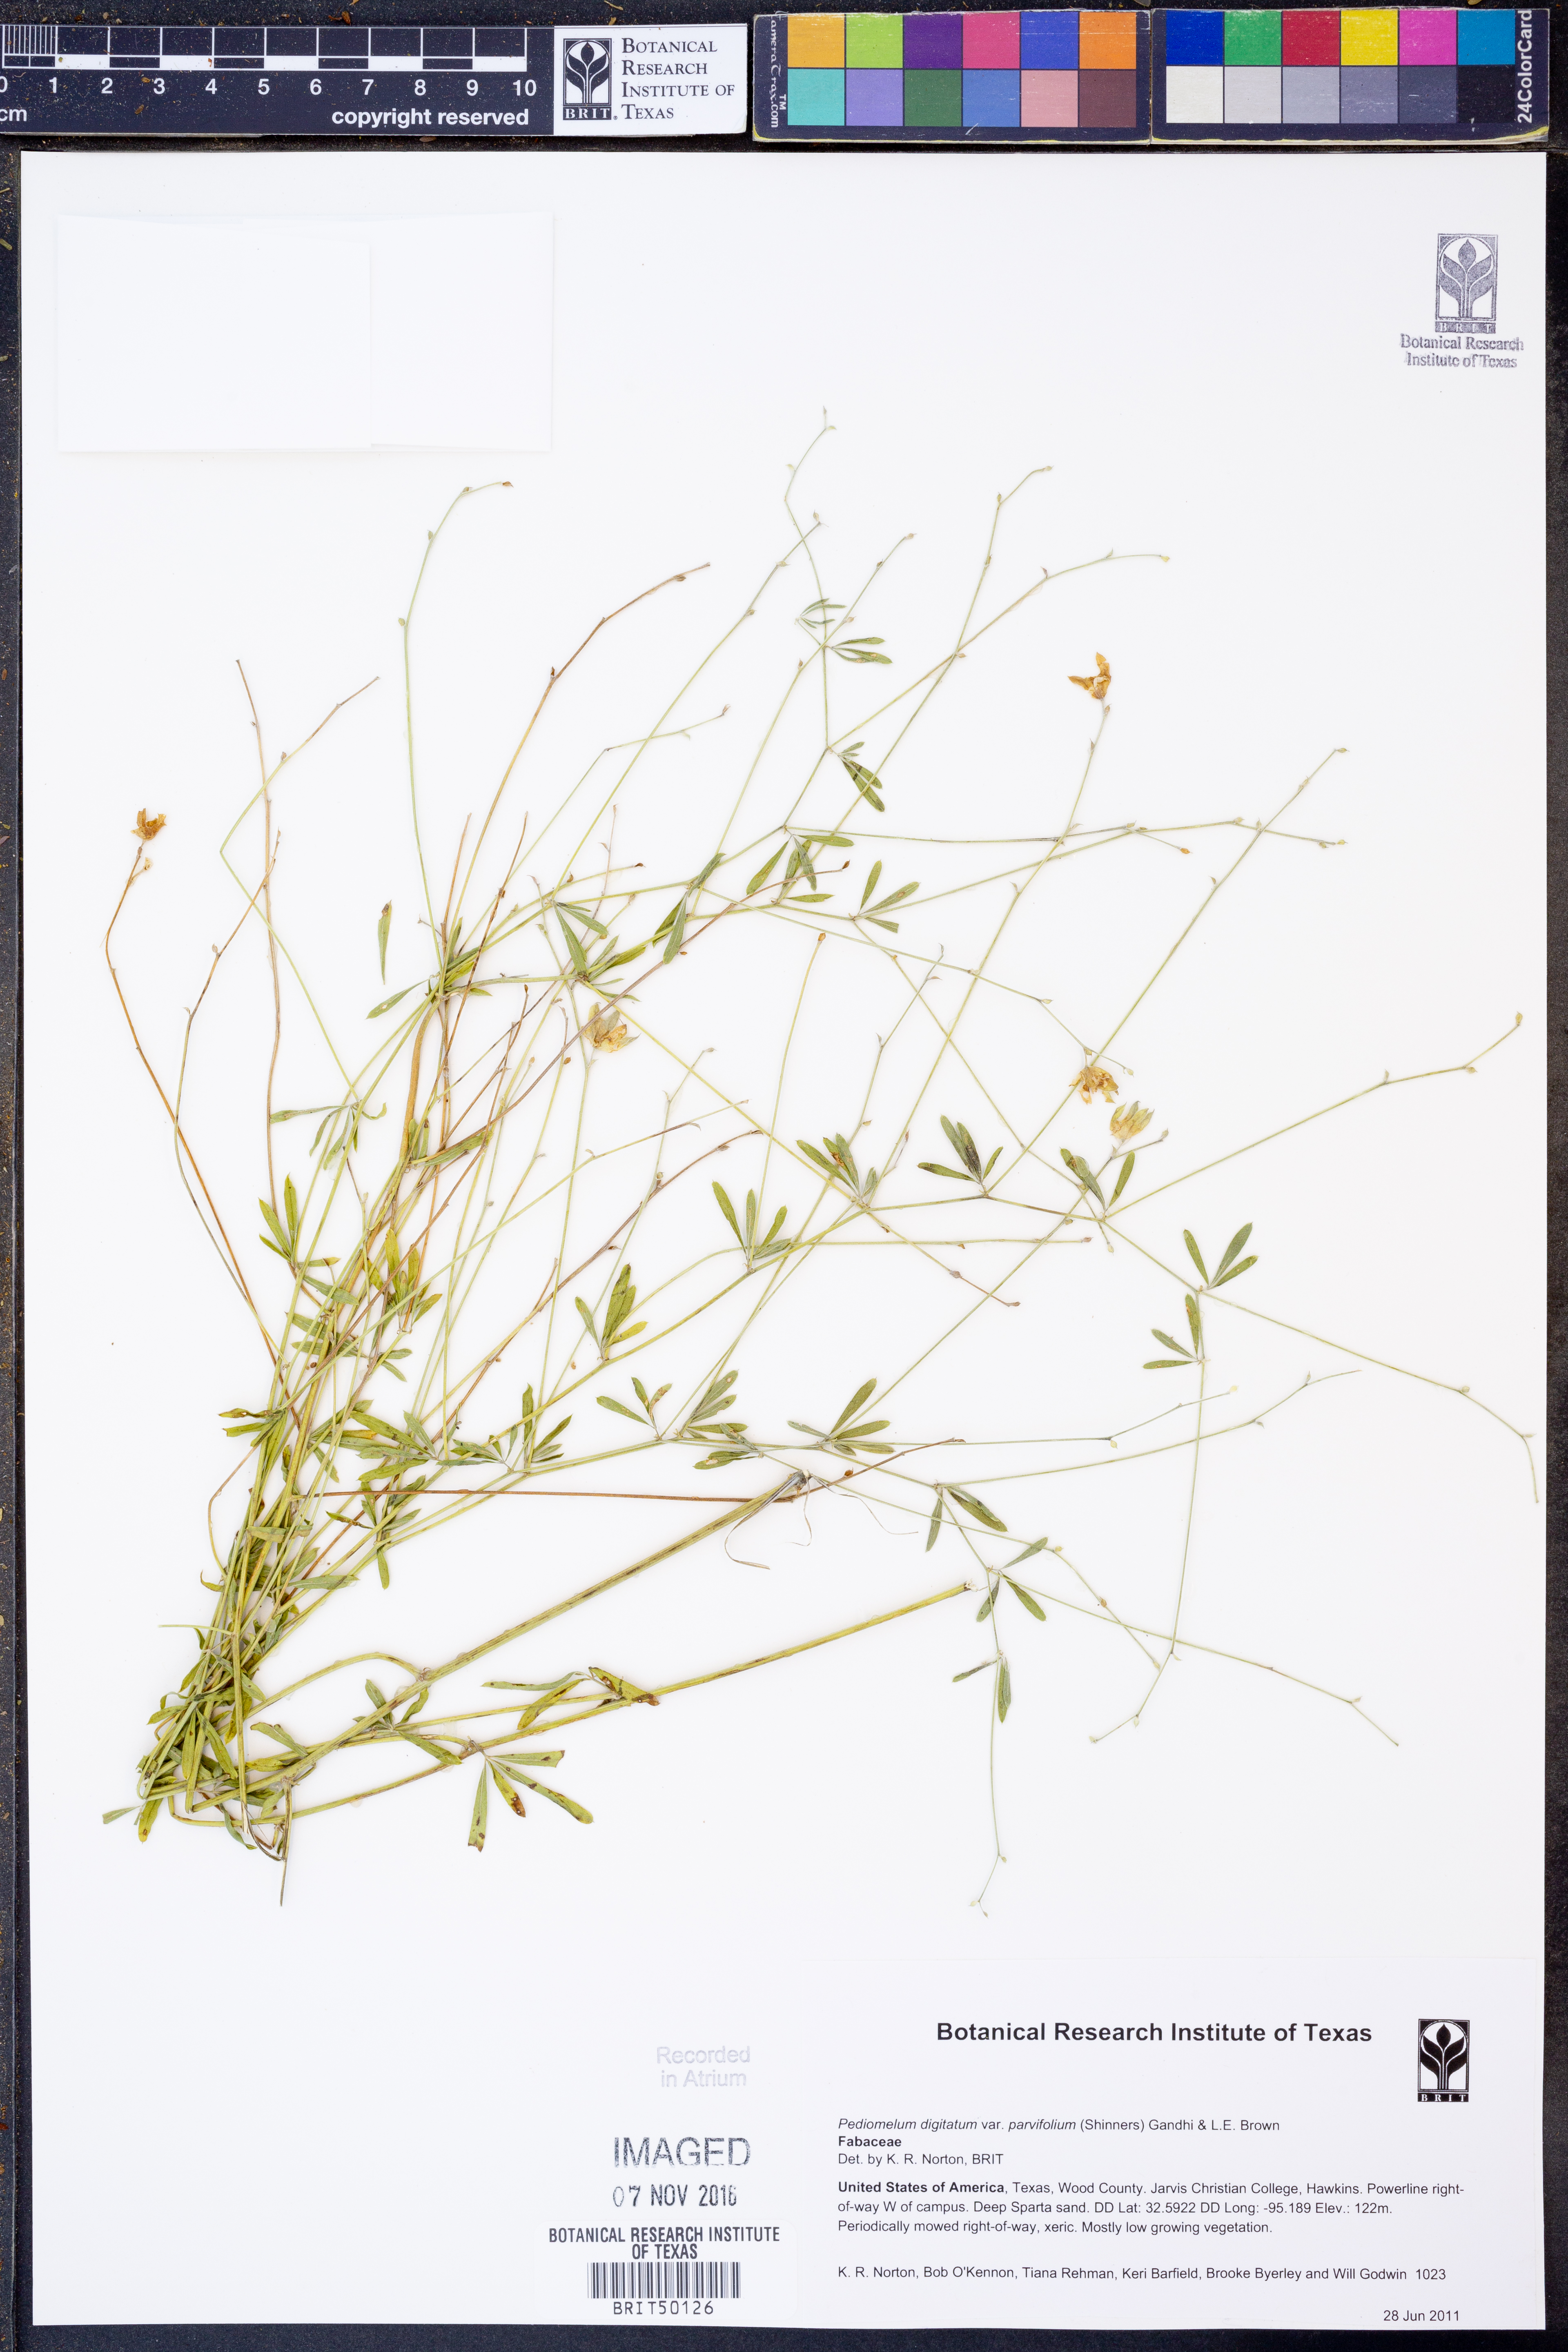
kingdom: Plantae
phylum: Tracheophyta
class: Magnoliopsida
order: Fabales
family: Fabaceae
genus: Pediomelum
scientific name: Pediomelum digitatum
